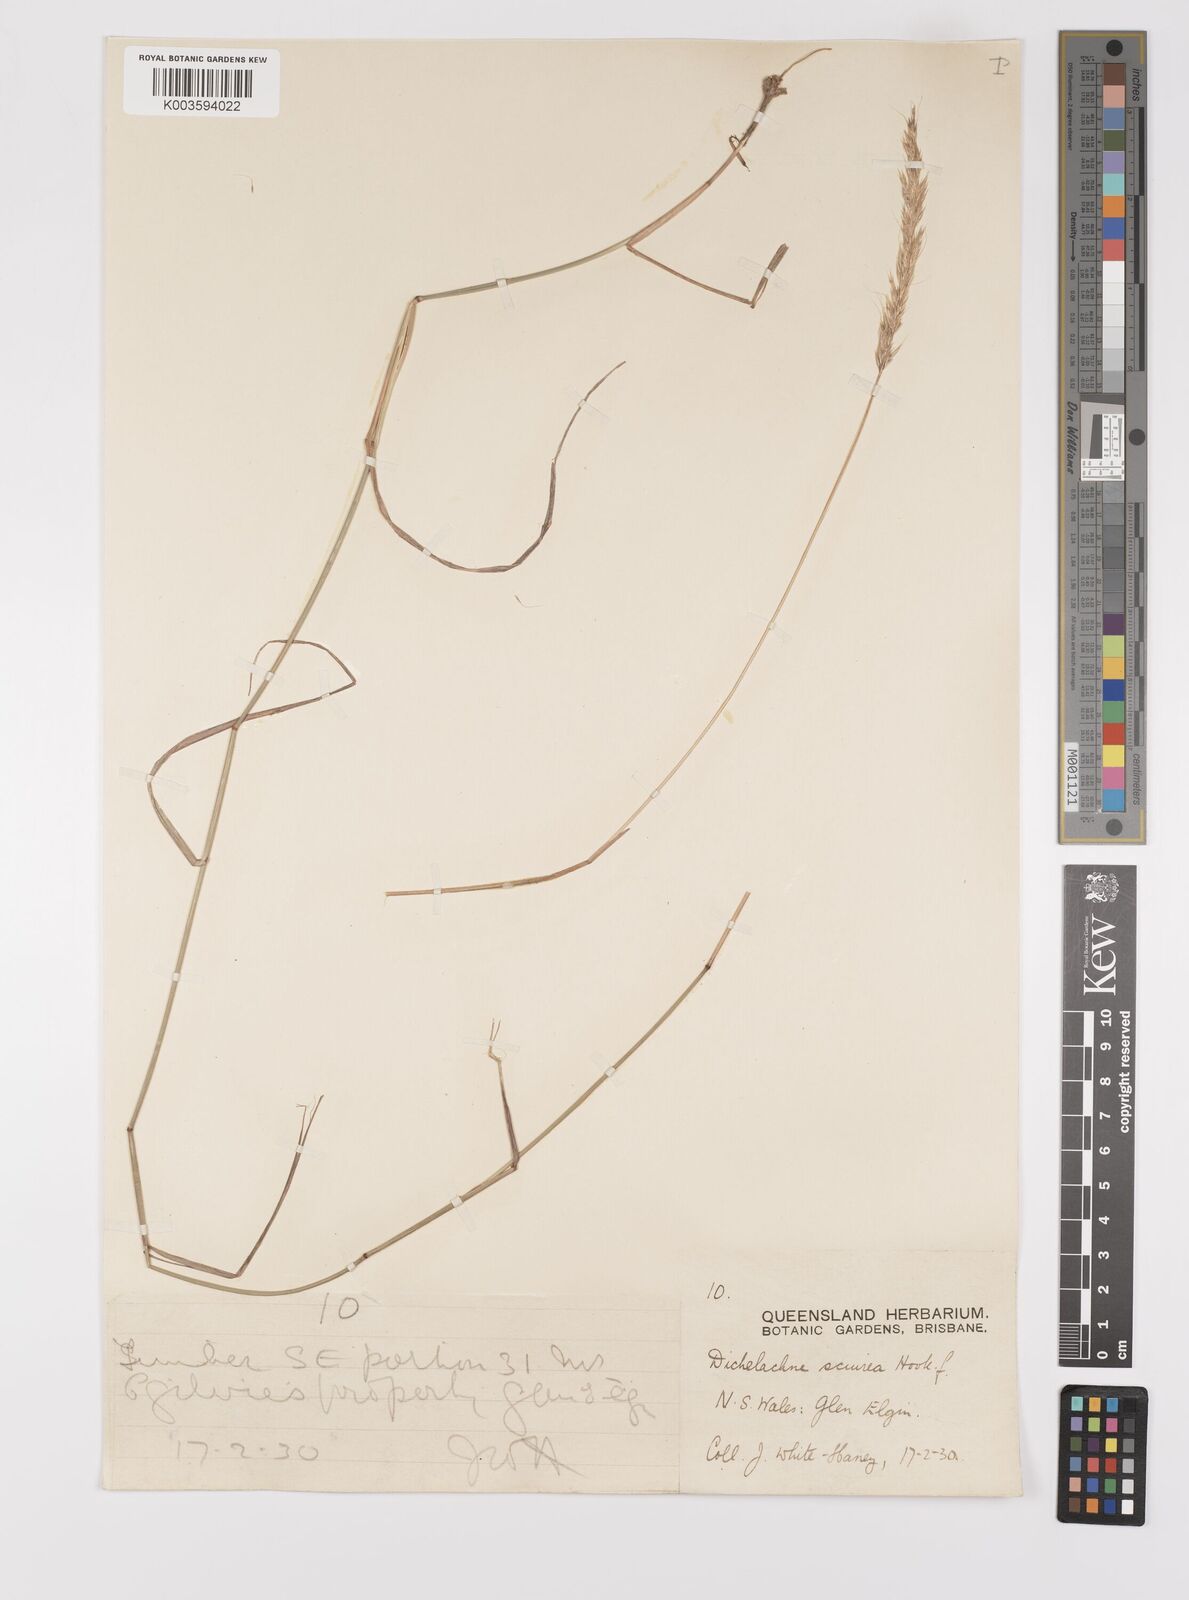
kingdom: Plantae
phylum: Tracheophyta
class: Liliopsida
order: Poales
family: Poaceae
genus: Dichelachne
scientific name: Dichelachne micrantha
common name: Plumegrass
